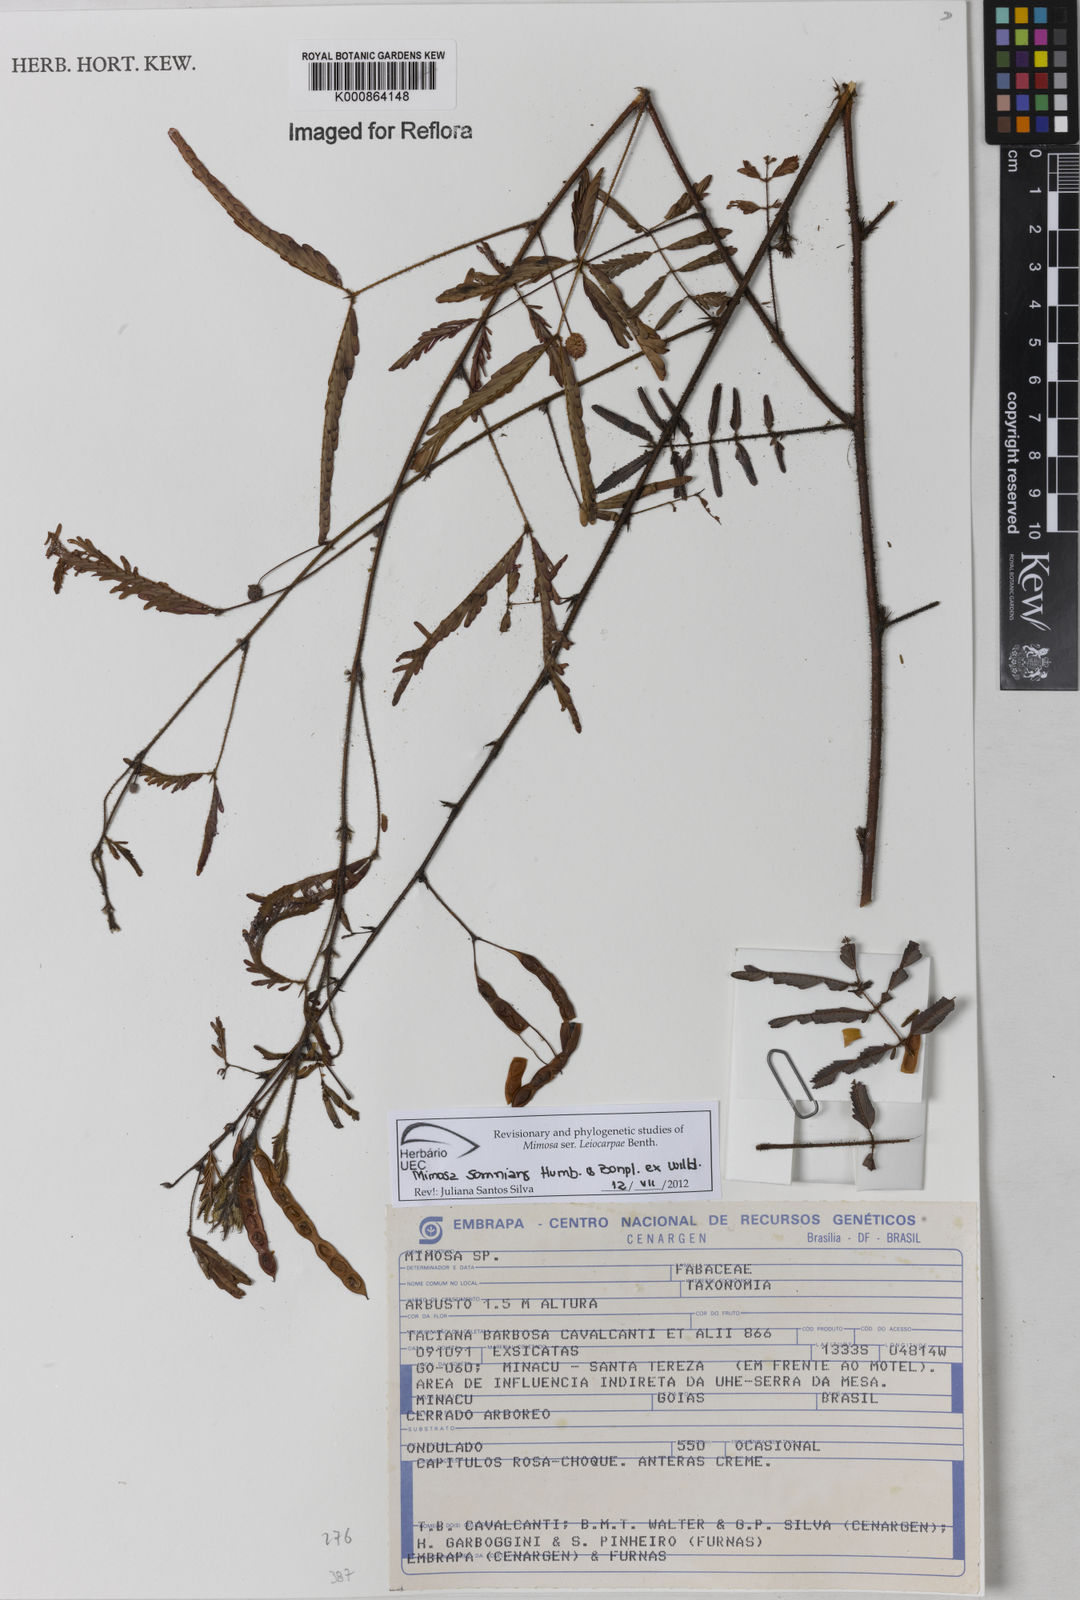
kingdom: Plantae
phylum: Tracheophyta
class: Magnoliopsida
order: Fabales
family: Fabaceae
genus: Mimosa
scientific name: Mimosa somnians
